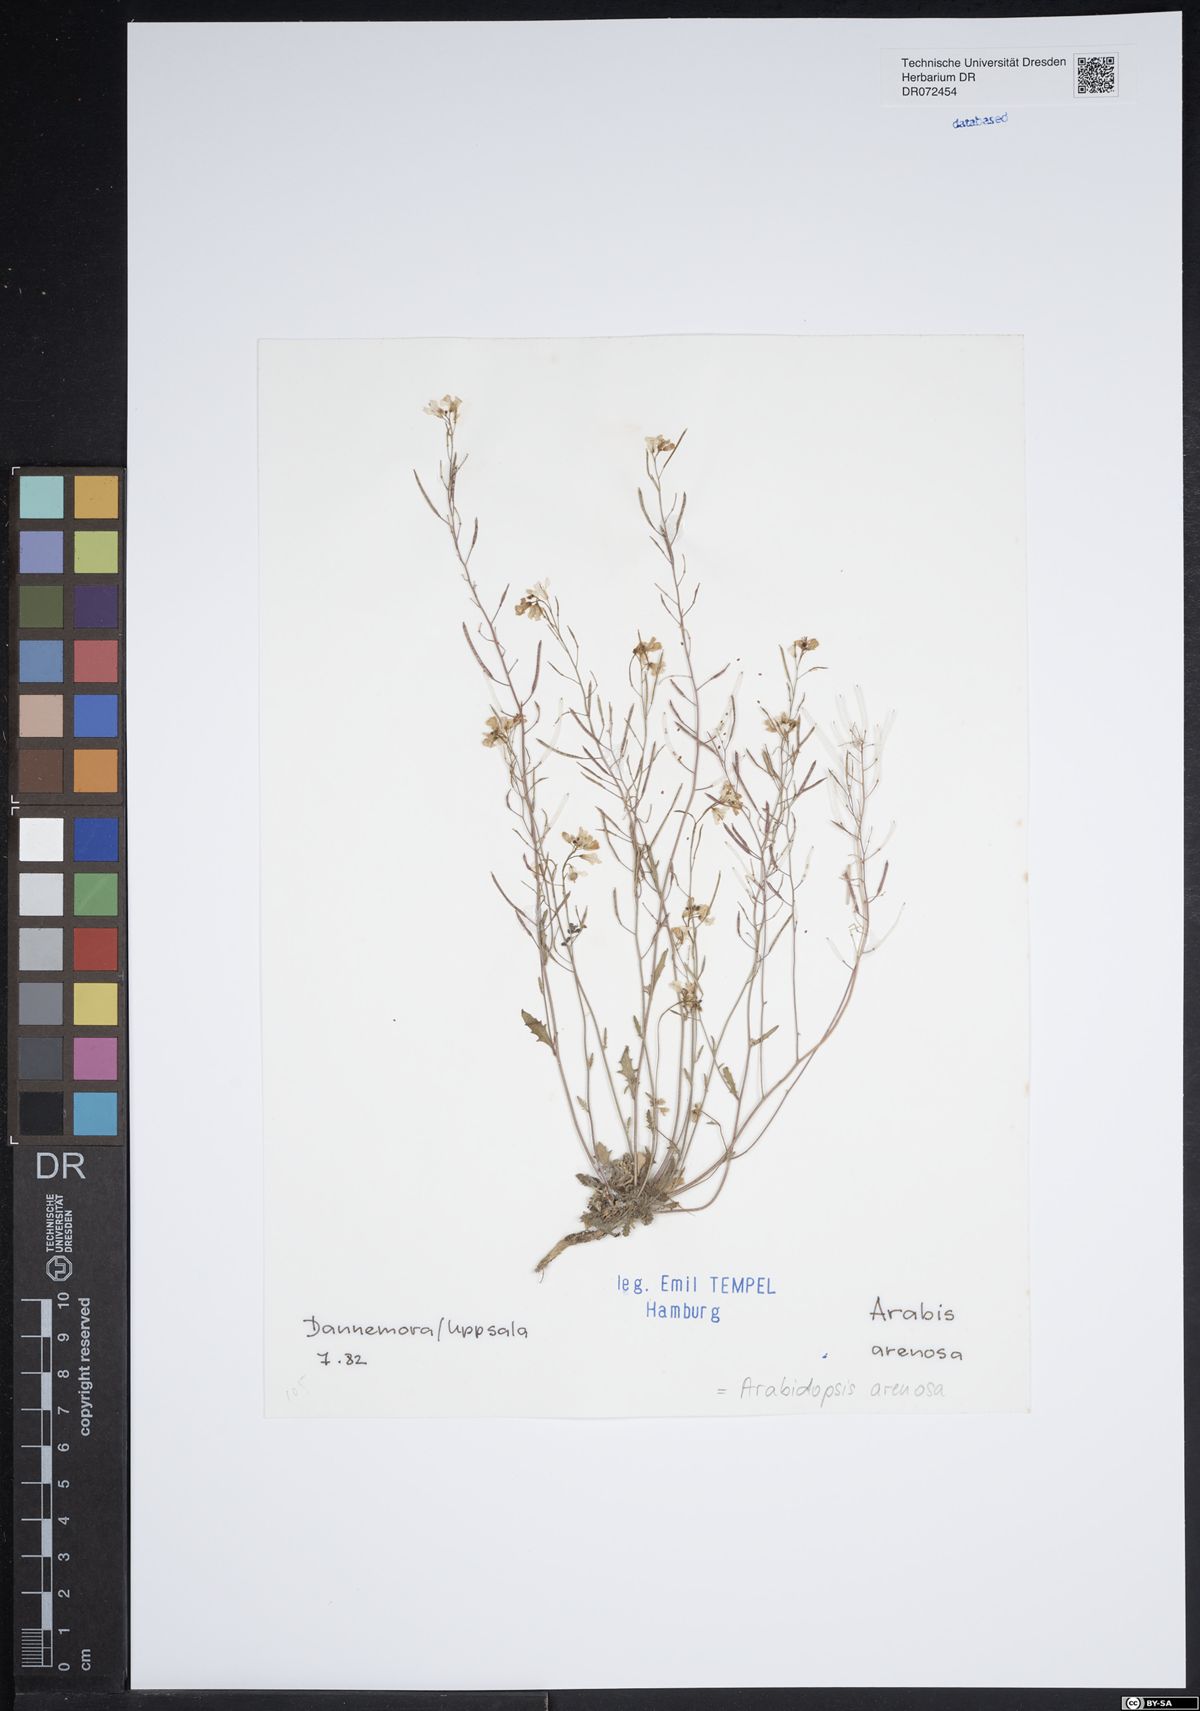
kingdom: Plantae
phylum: Tracheophyta
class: Magnoliopsida
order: Brassicales
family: Brassicaceae
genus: Arabidopsis
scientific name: Arabidopsis arenosa
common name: Sand rock-cress
